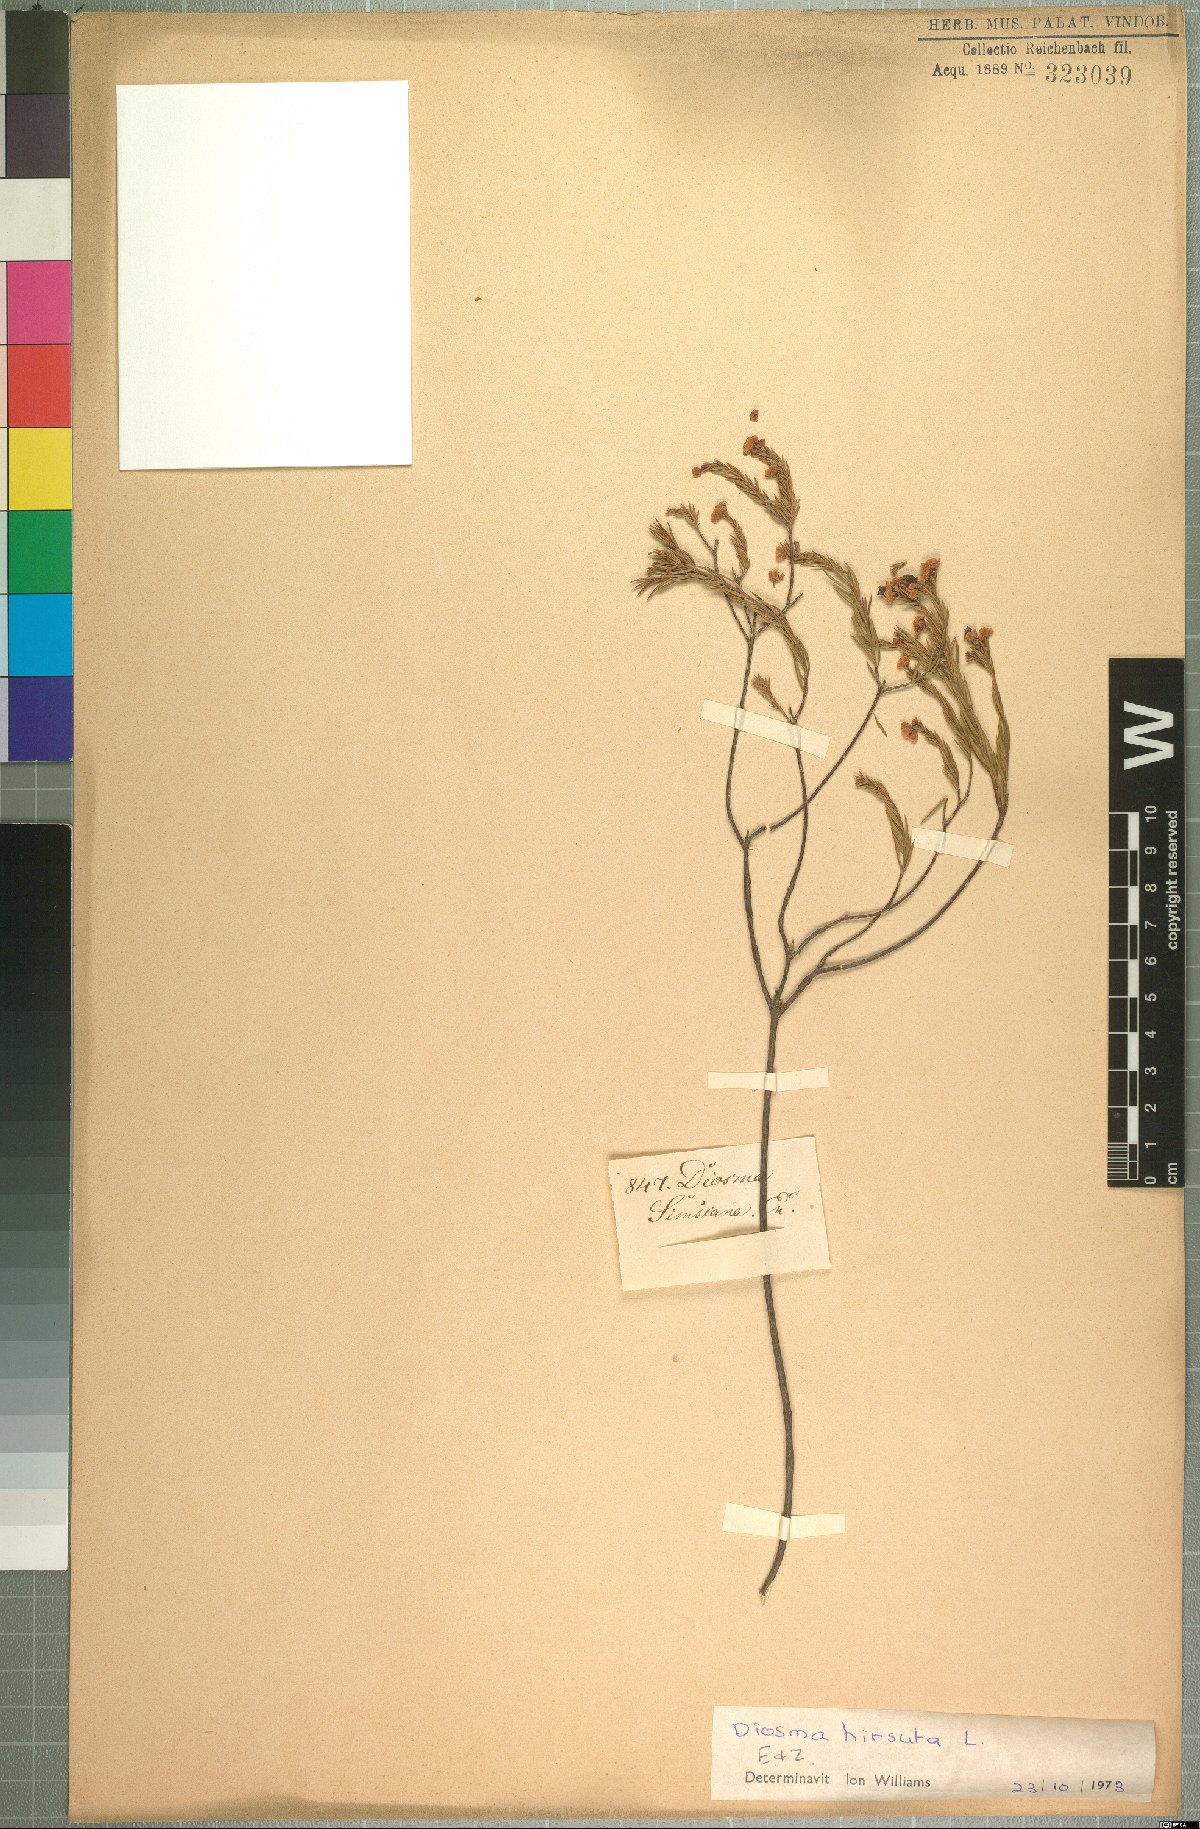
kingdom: Plantae
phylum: Tracheophyta
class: Magnoliopsida
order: Sapindales
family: Rutaceae
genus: Diosma
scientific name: Diosma hirsuta
